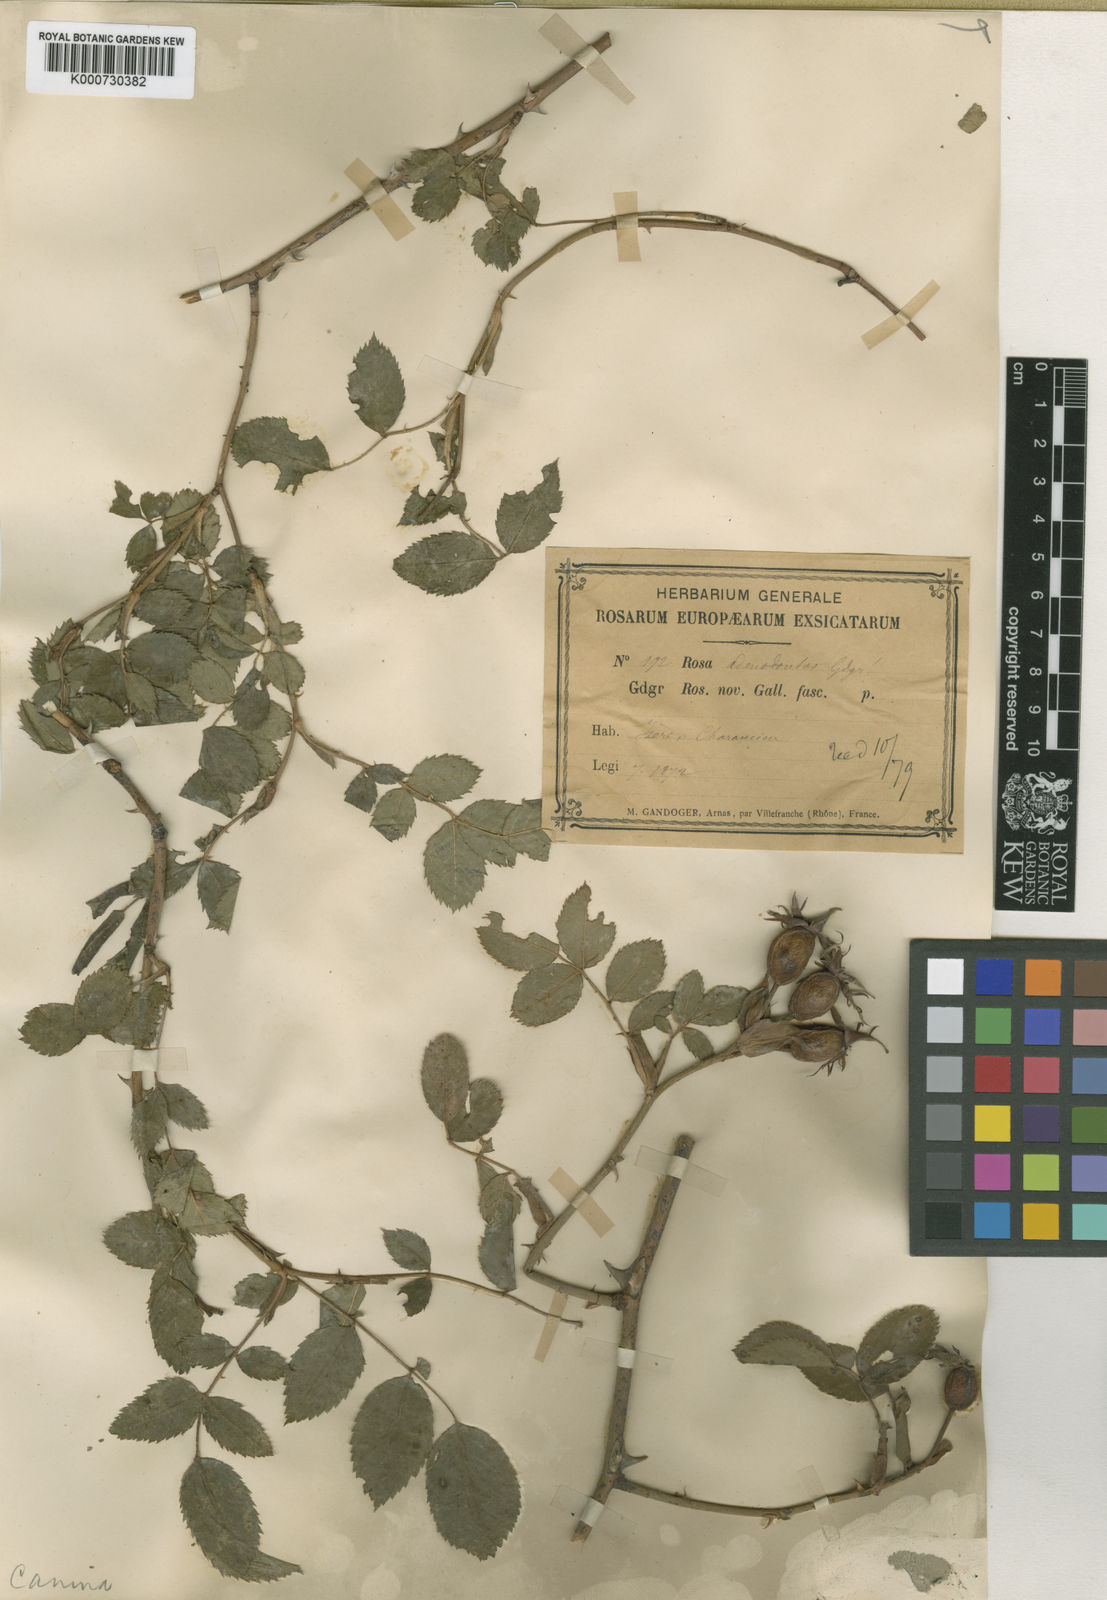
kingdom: Plantae
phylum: Tracheophyta
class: Magnoliopsida
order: Rosales
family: Rosaceae
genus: Rosa
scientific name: Rosa canina
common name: Dog rose
